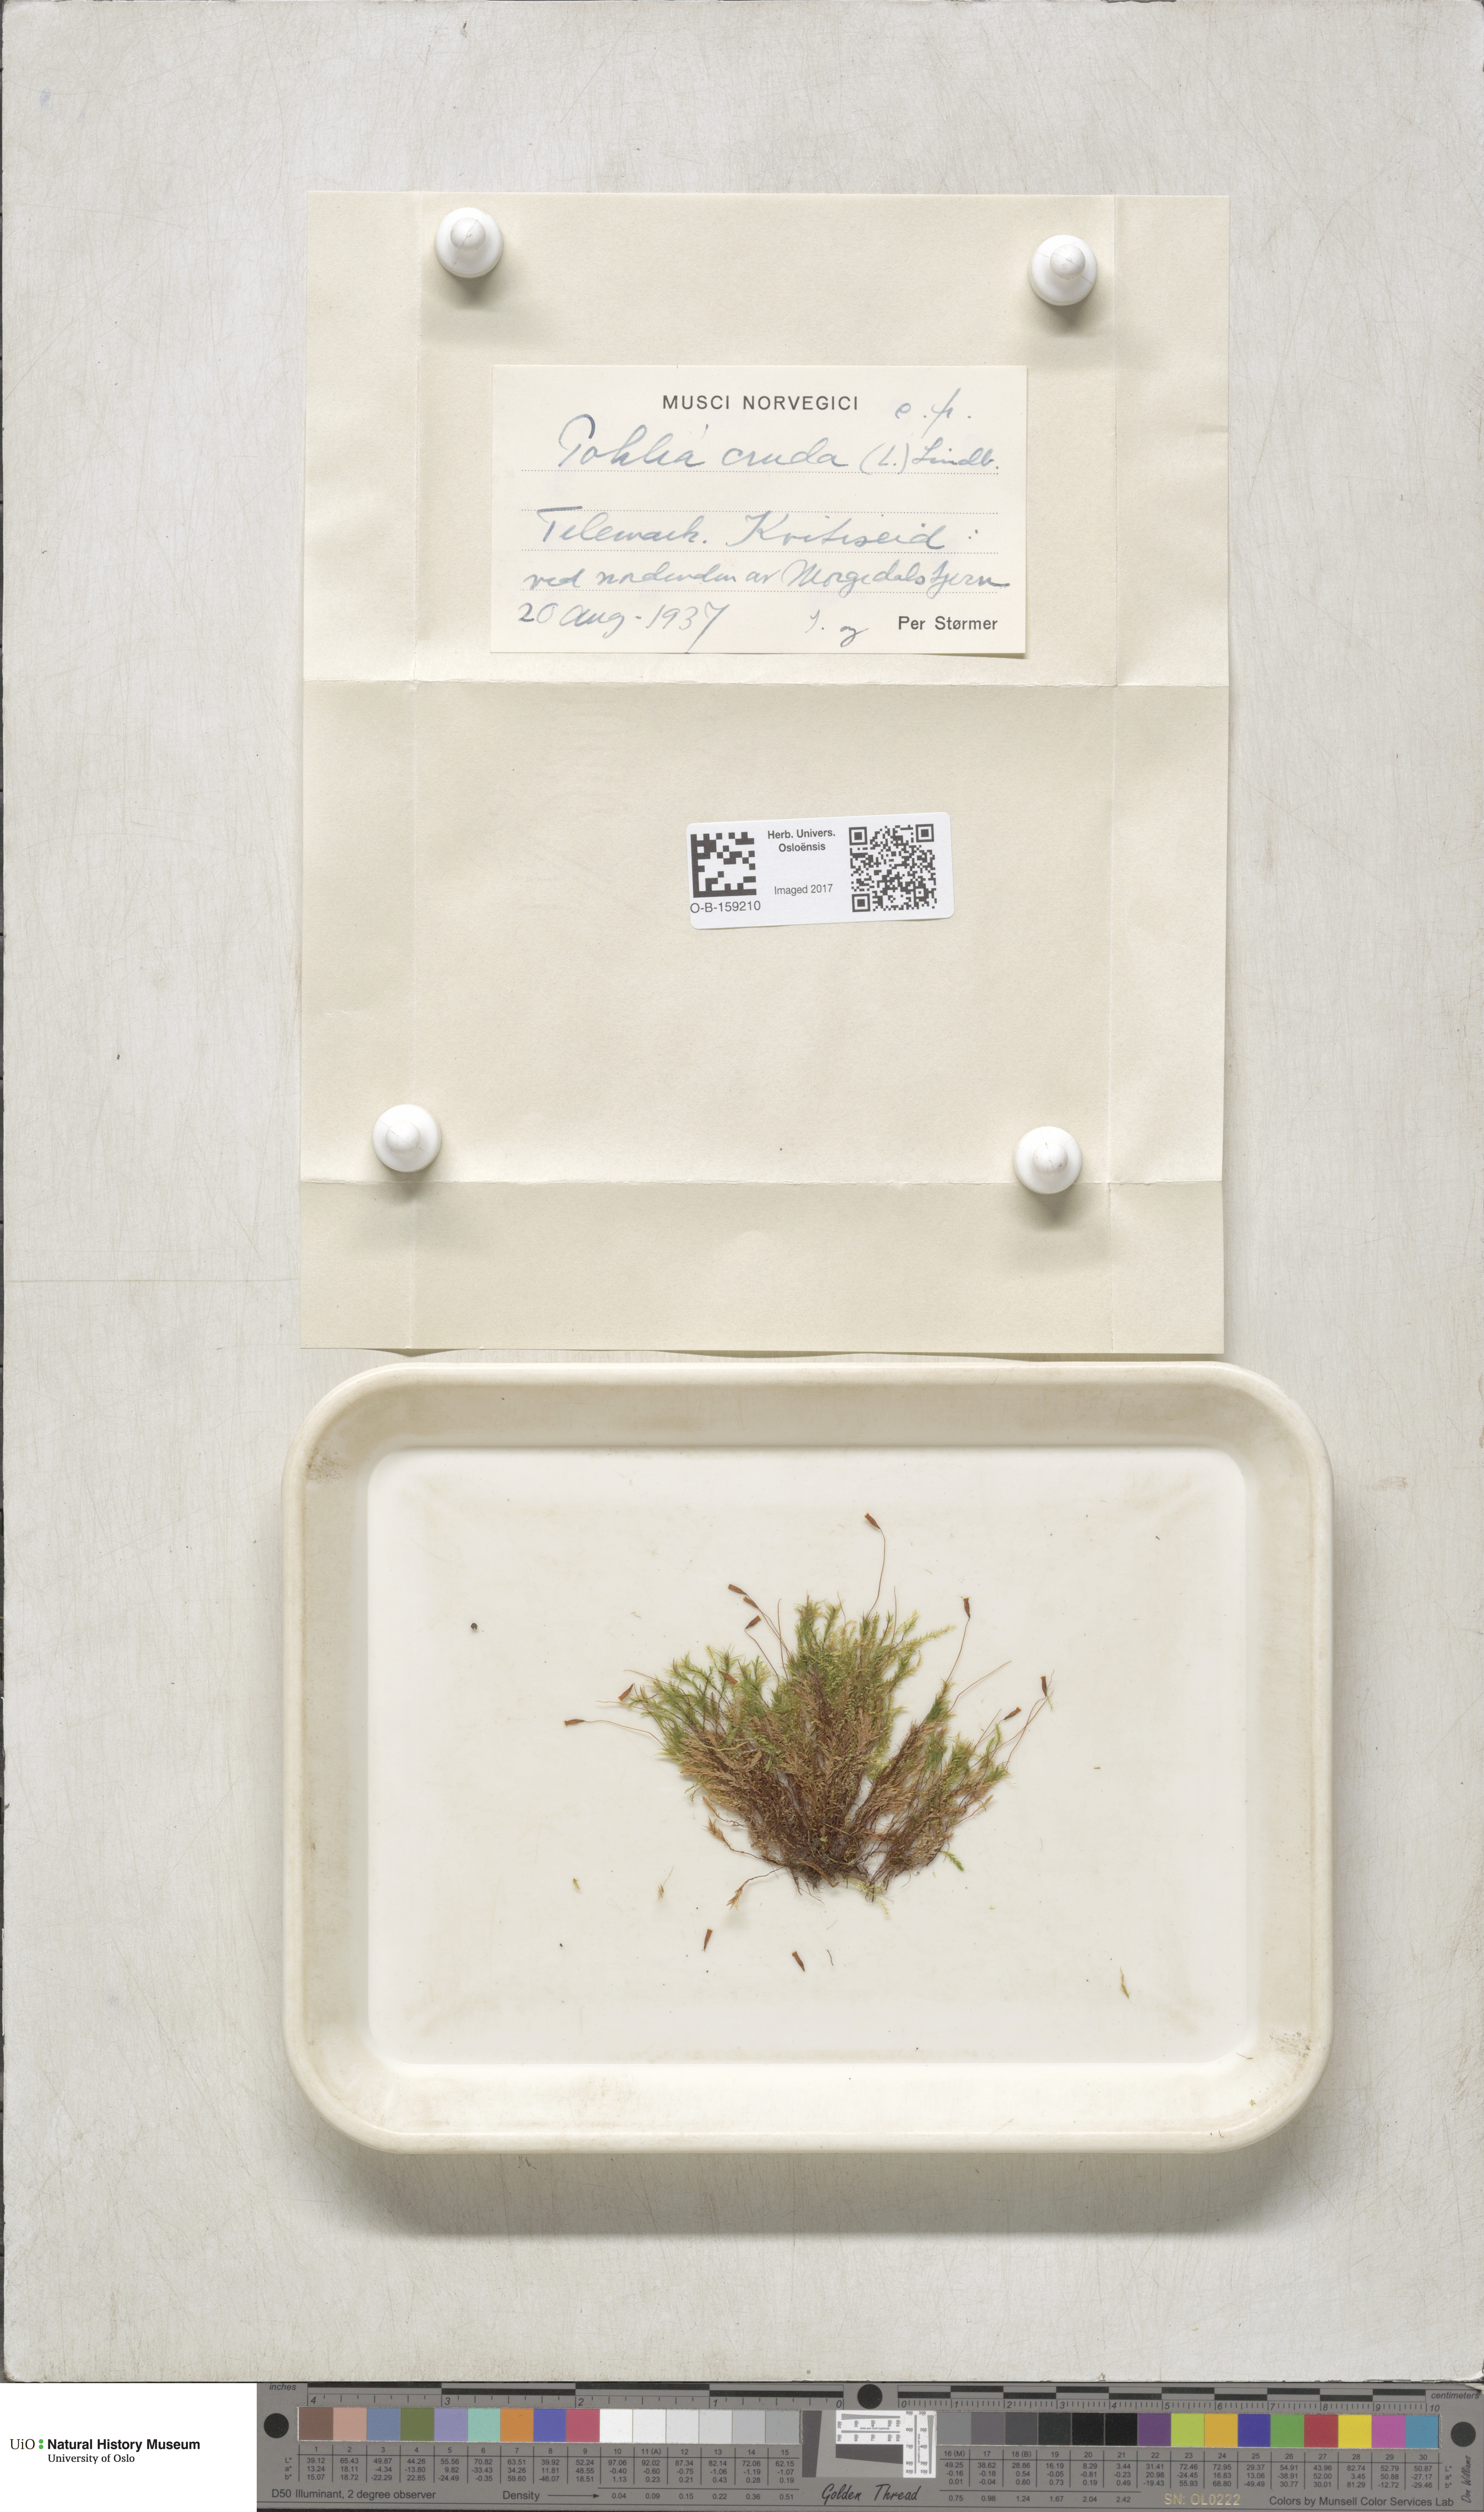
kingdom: Plantae
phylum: Bryophyta
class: Bryopsida
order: Bryales
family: Mniaceae
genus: Pohlia
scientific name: Pohlia cruda
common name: Opal nodding moss
